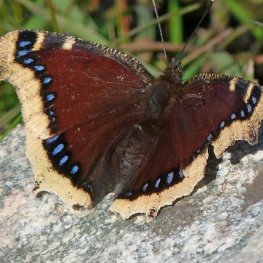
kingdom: Animalia
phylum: Arthropoda
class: Insecta
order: Lepidoptera
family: Nymphalidae
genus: Nymphalis
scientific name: Nymphalis antiopa
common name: Mourning Cloak
